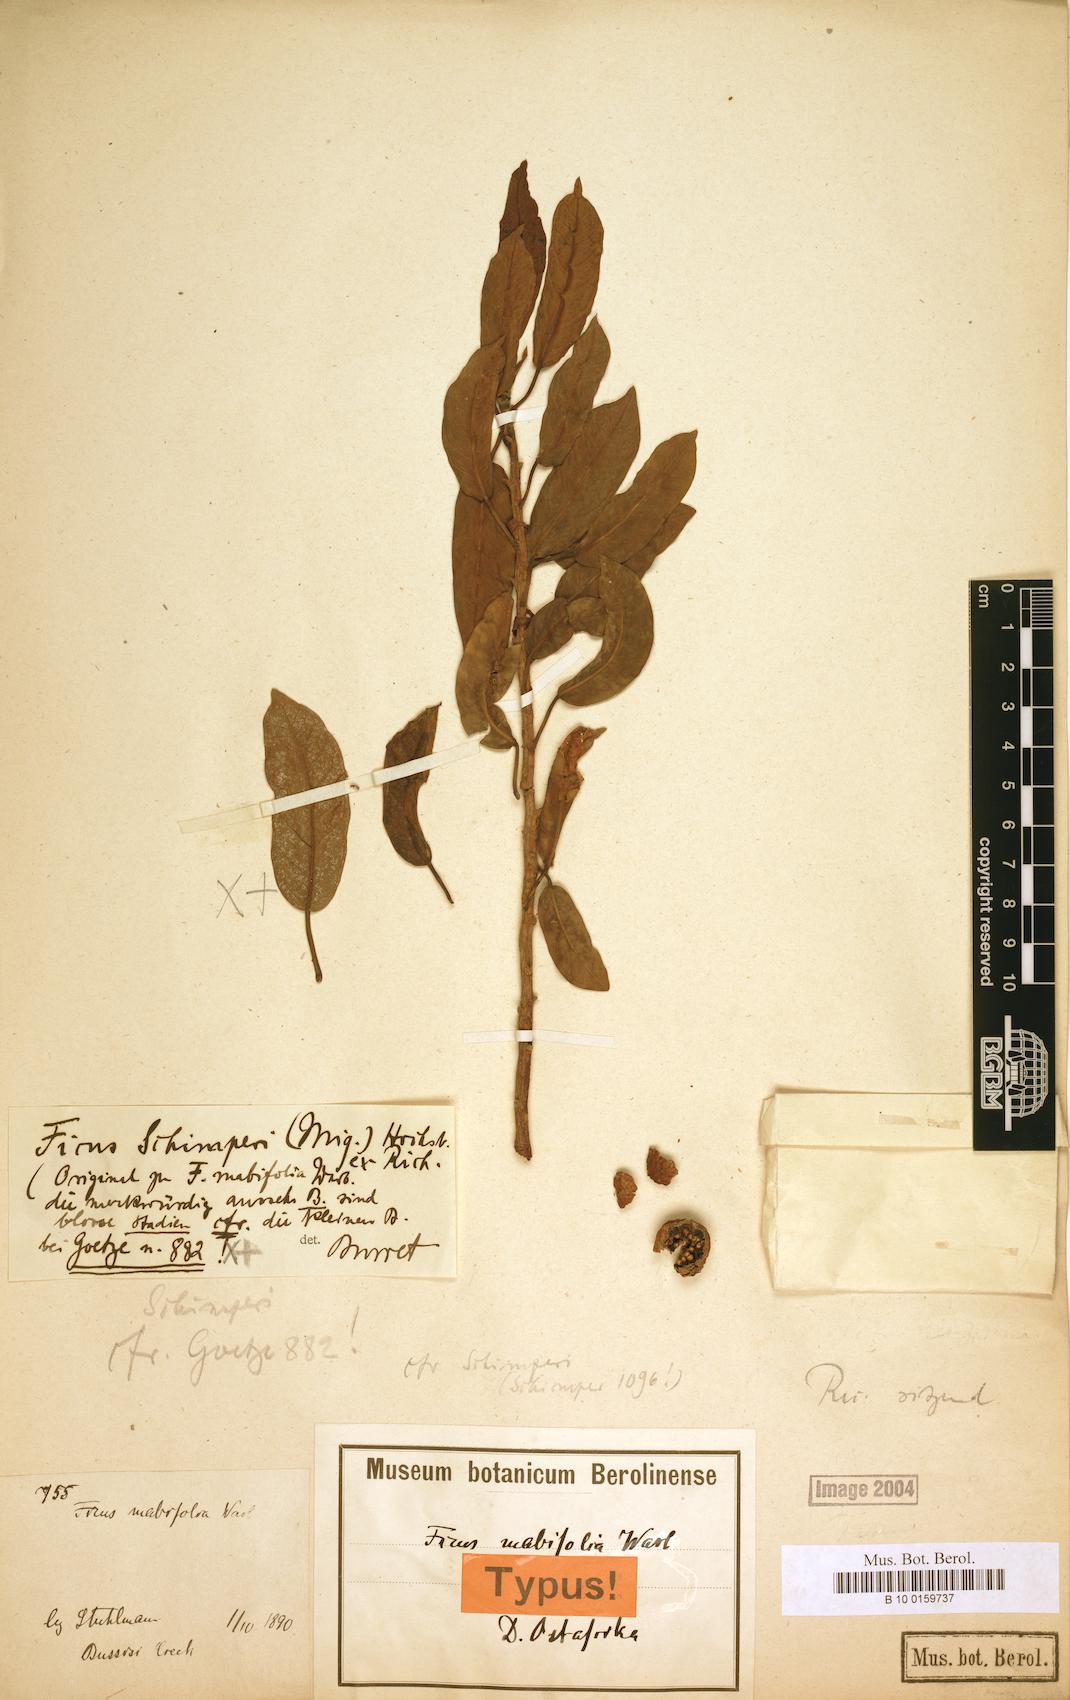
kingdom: Plantae
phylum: Tracheophyta
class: Magnoliopsida
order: Rosales
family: Moraceae
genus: Ficus
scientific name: Ficus thonningii
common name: Fig
